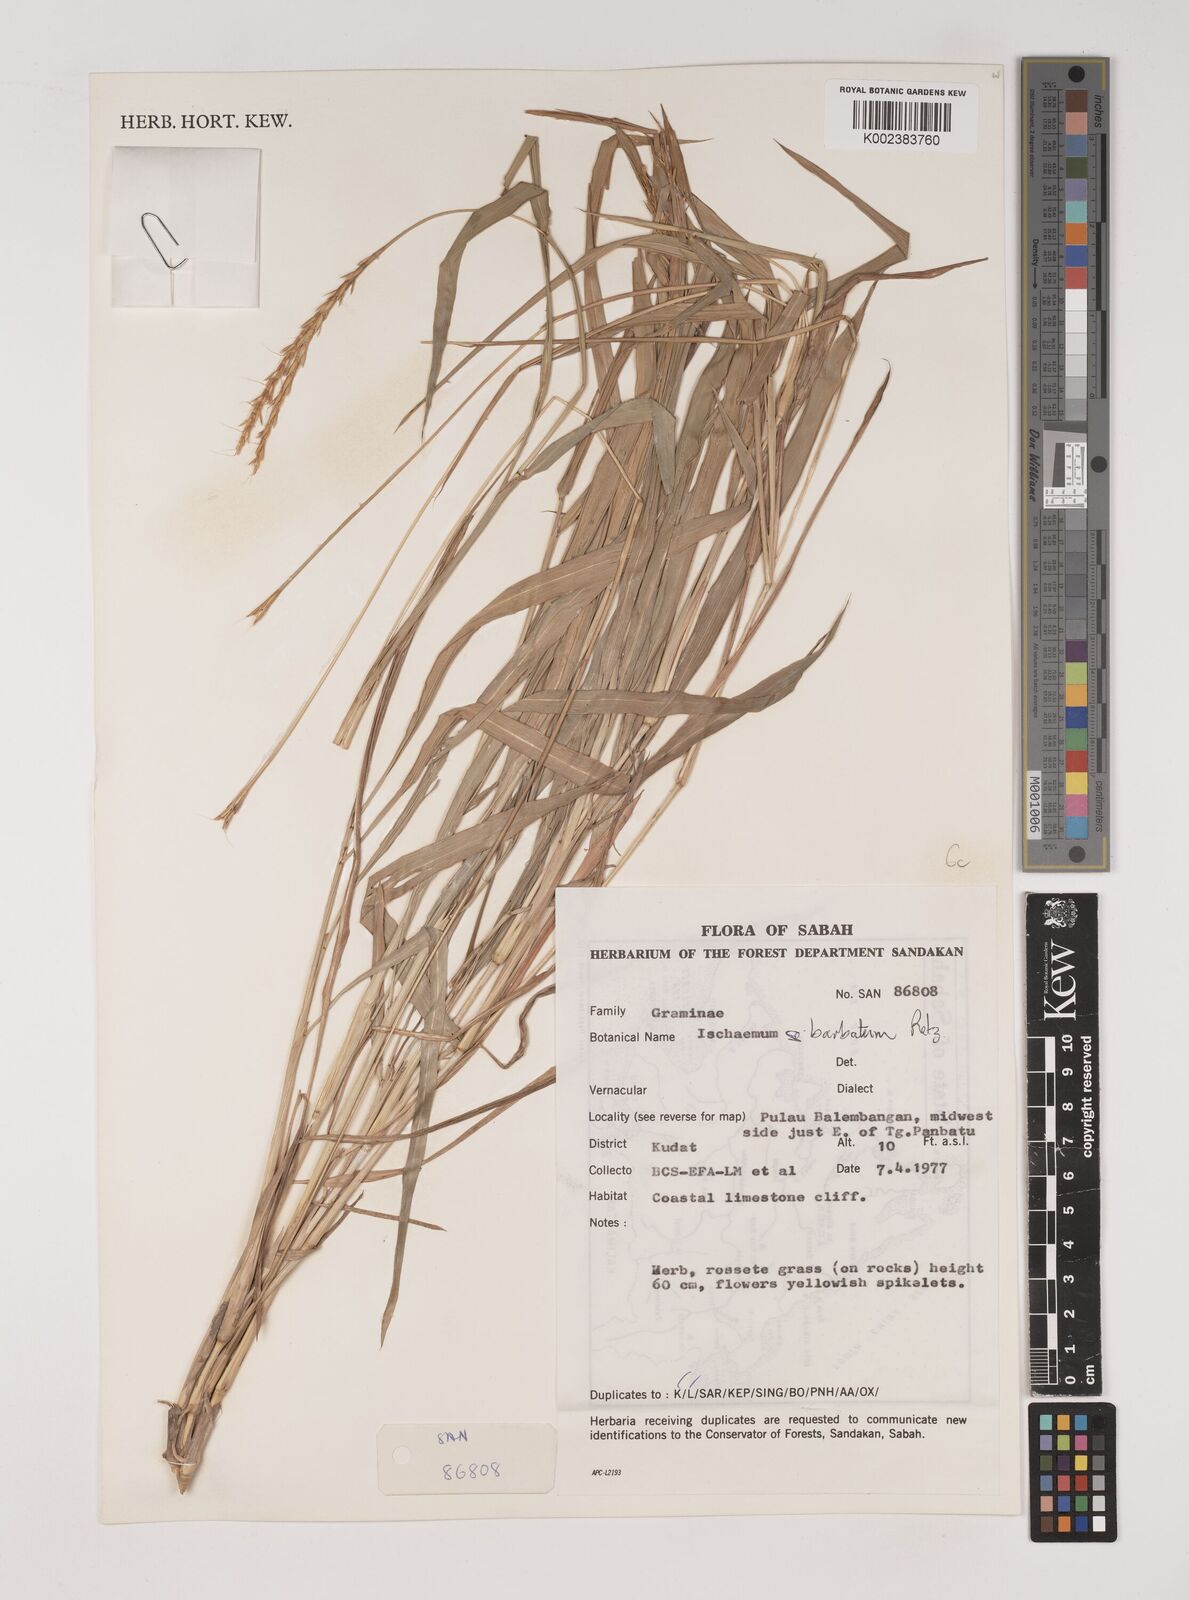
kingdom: Plantae
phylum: Tracheophyta
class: Liliopsida
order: Poales
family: Poaceae
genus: Ischaemum
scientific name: Ischaemum barbatum
